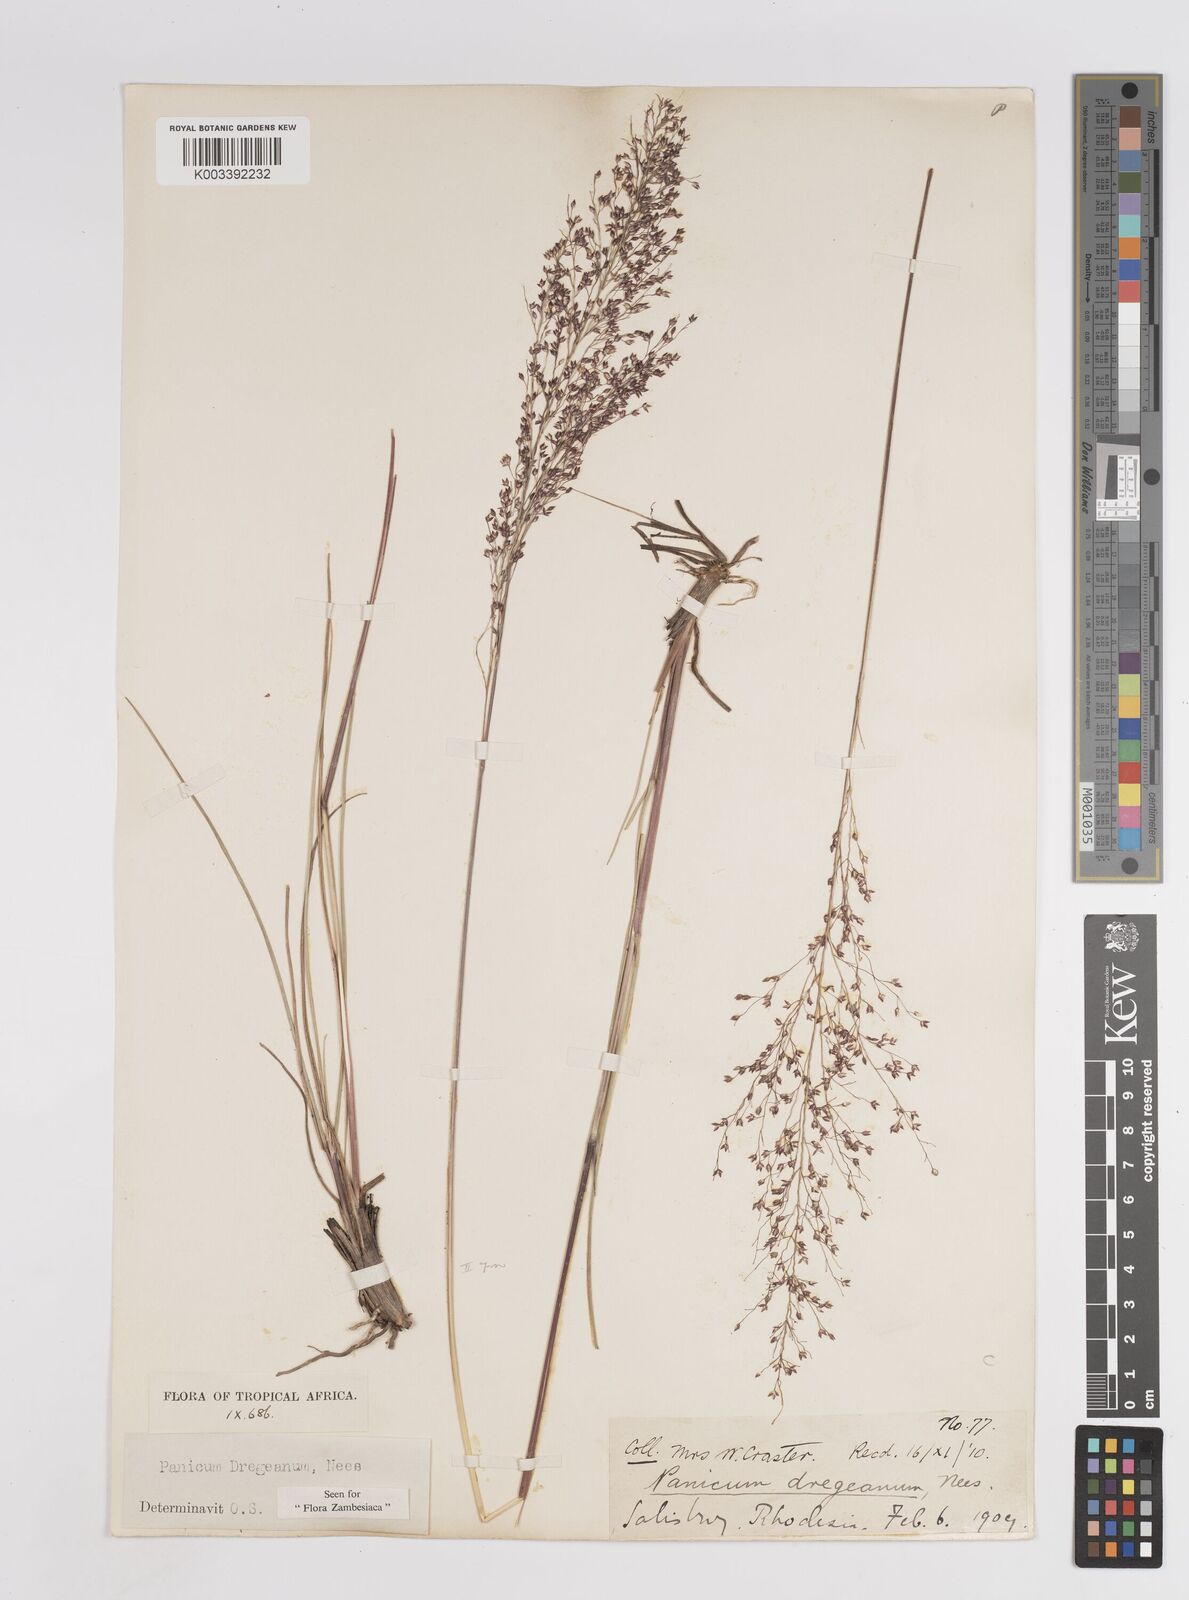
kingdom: Plantae
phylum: Tracheophyta
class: Liliopsida
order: Poales
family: Poaceae
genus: Panicum
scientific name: Panicum dregeanum
